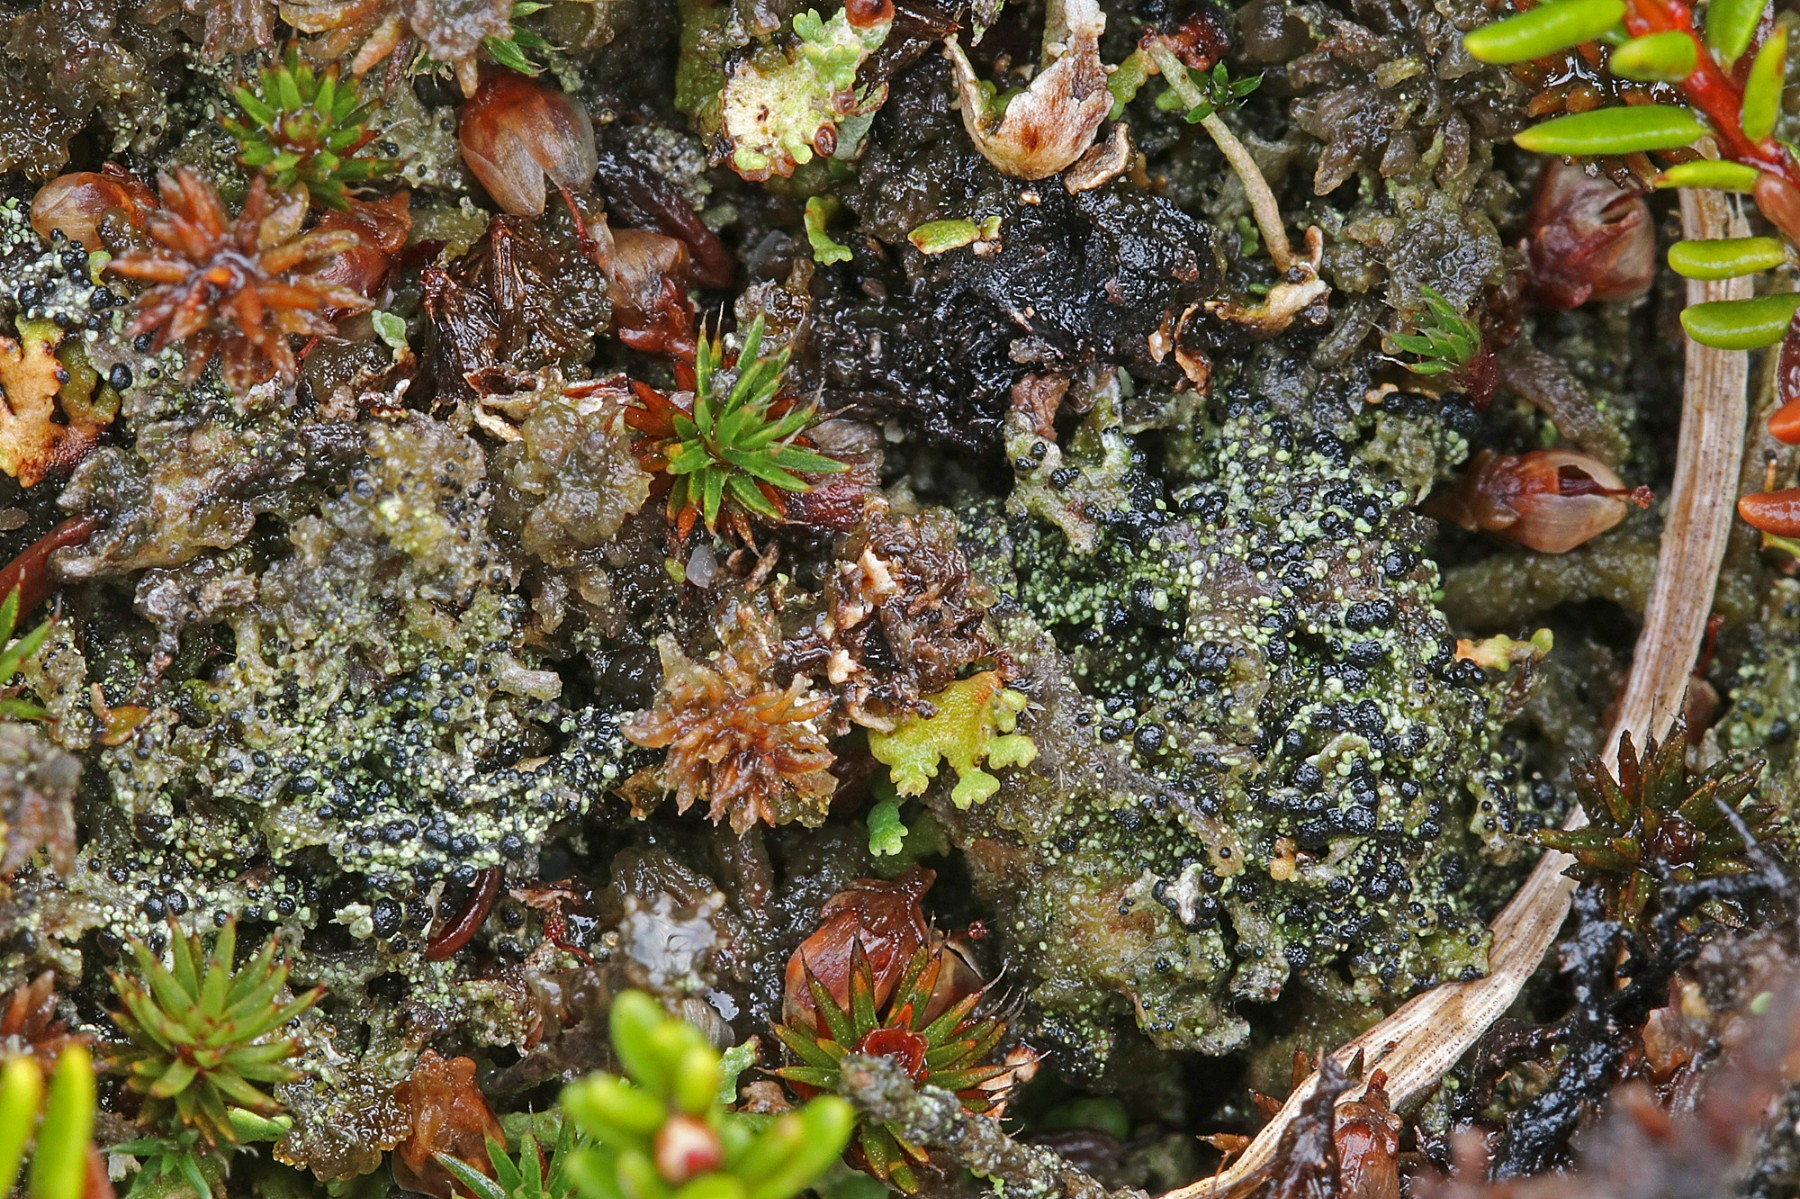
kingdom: Fungi
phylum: Ascomycota
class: Lecanoromycetes
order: Lecanorales
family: Byssolomataceae
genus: Micarea
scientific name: Micarea lignaria
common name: tørve-knaplav
